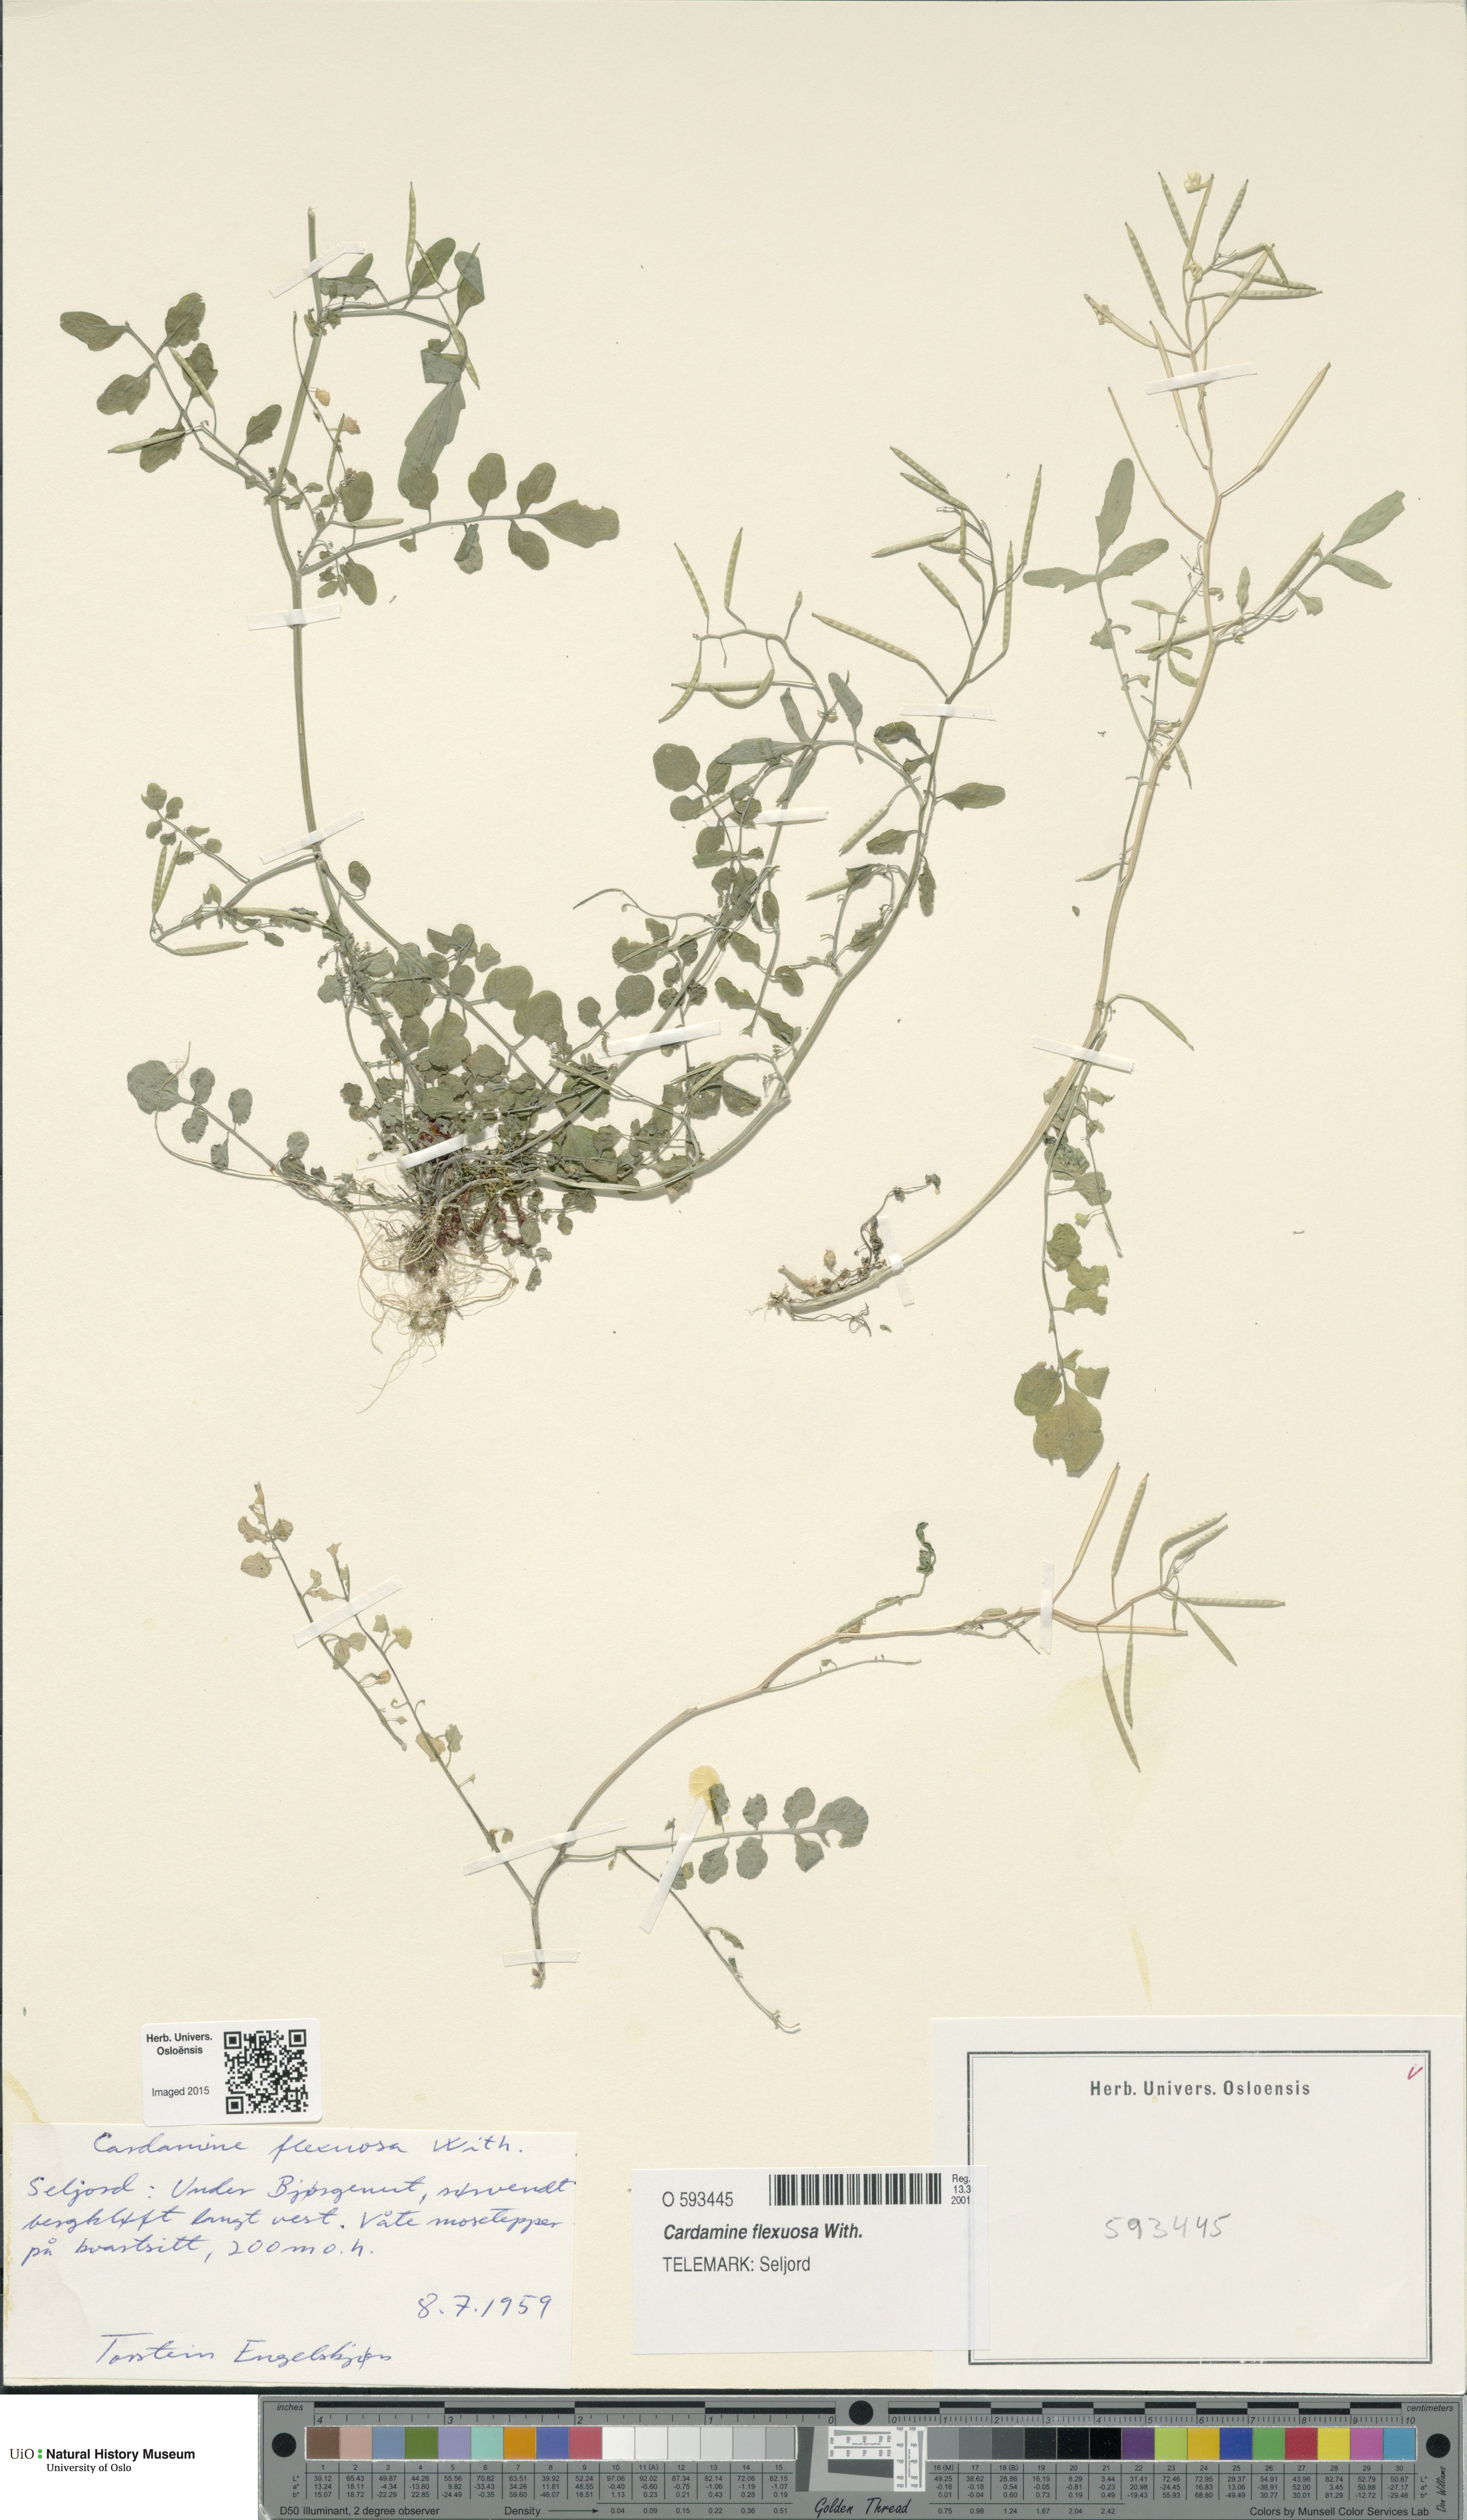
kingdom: Plantae
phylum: Tracheophyta
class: Magnoliopsida
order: Brassicales
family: Brassicaceae
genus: Cardamine
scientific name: Cardamine flexuosa
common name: Woodland bittercress
